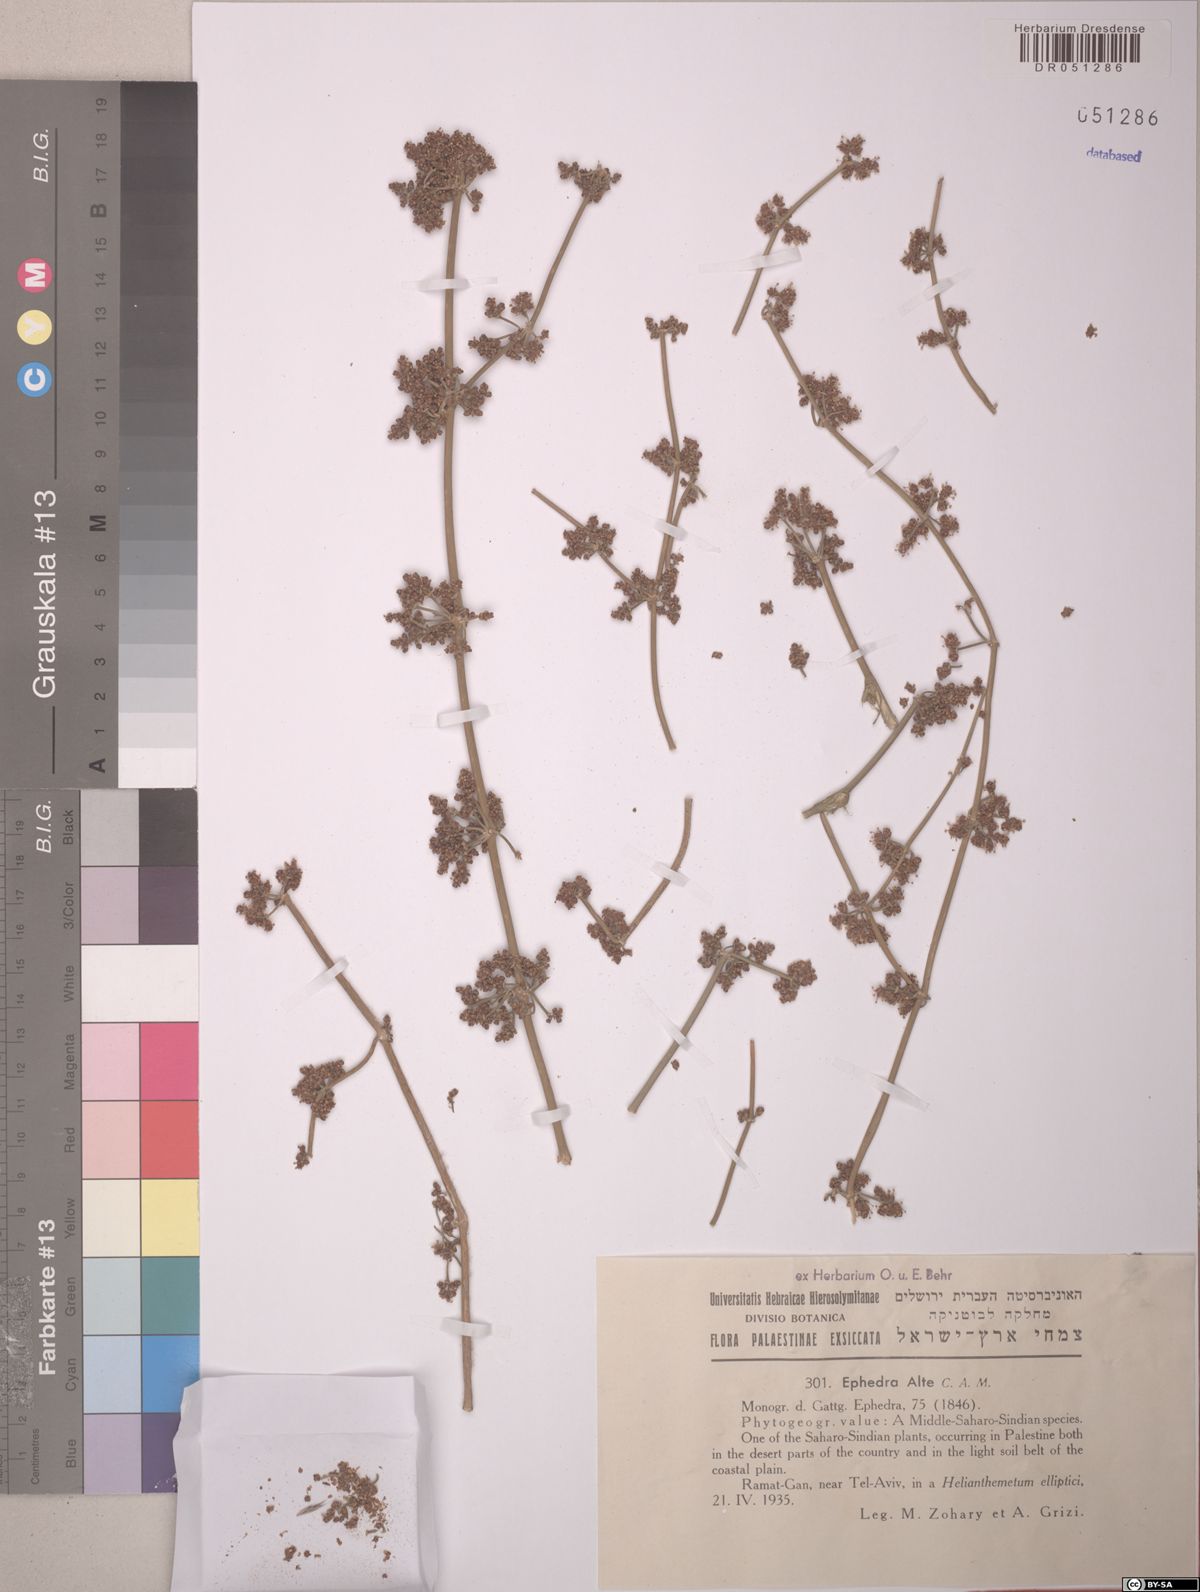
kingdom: Plantae
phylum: Tracheophyta
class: Gnetopsida
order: Ephedrales
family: Ephedraceae
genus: Ephedra
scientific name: Ephedra aphylla
